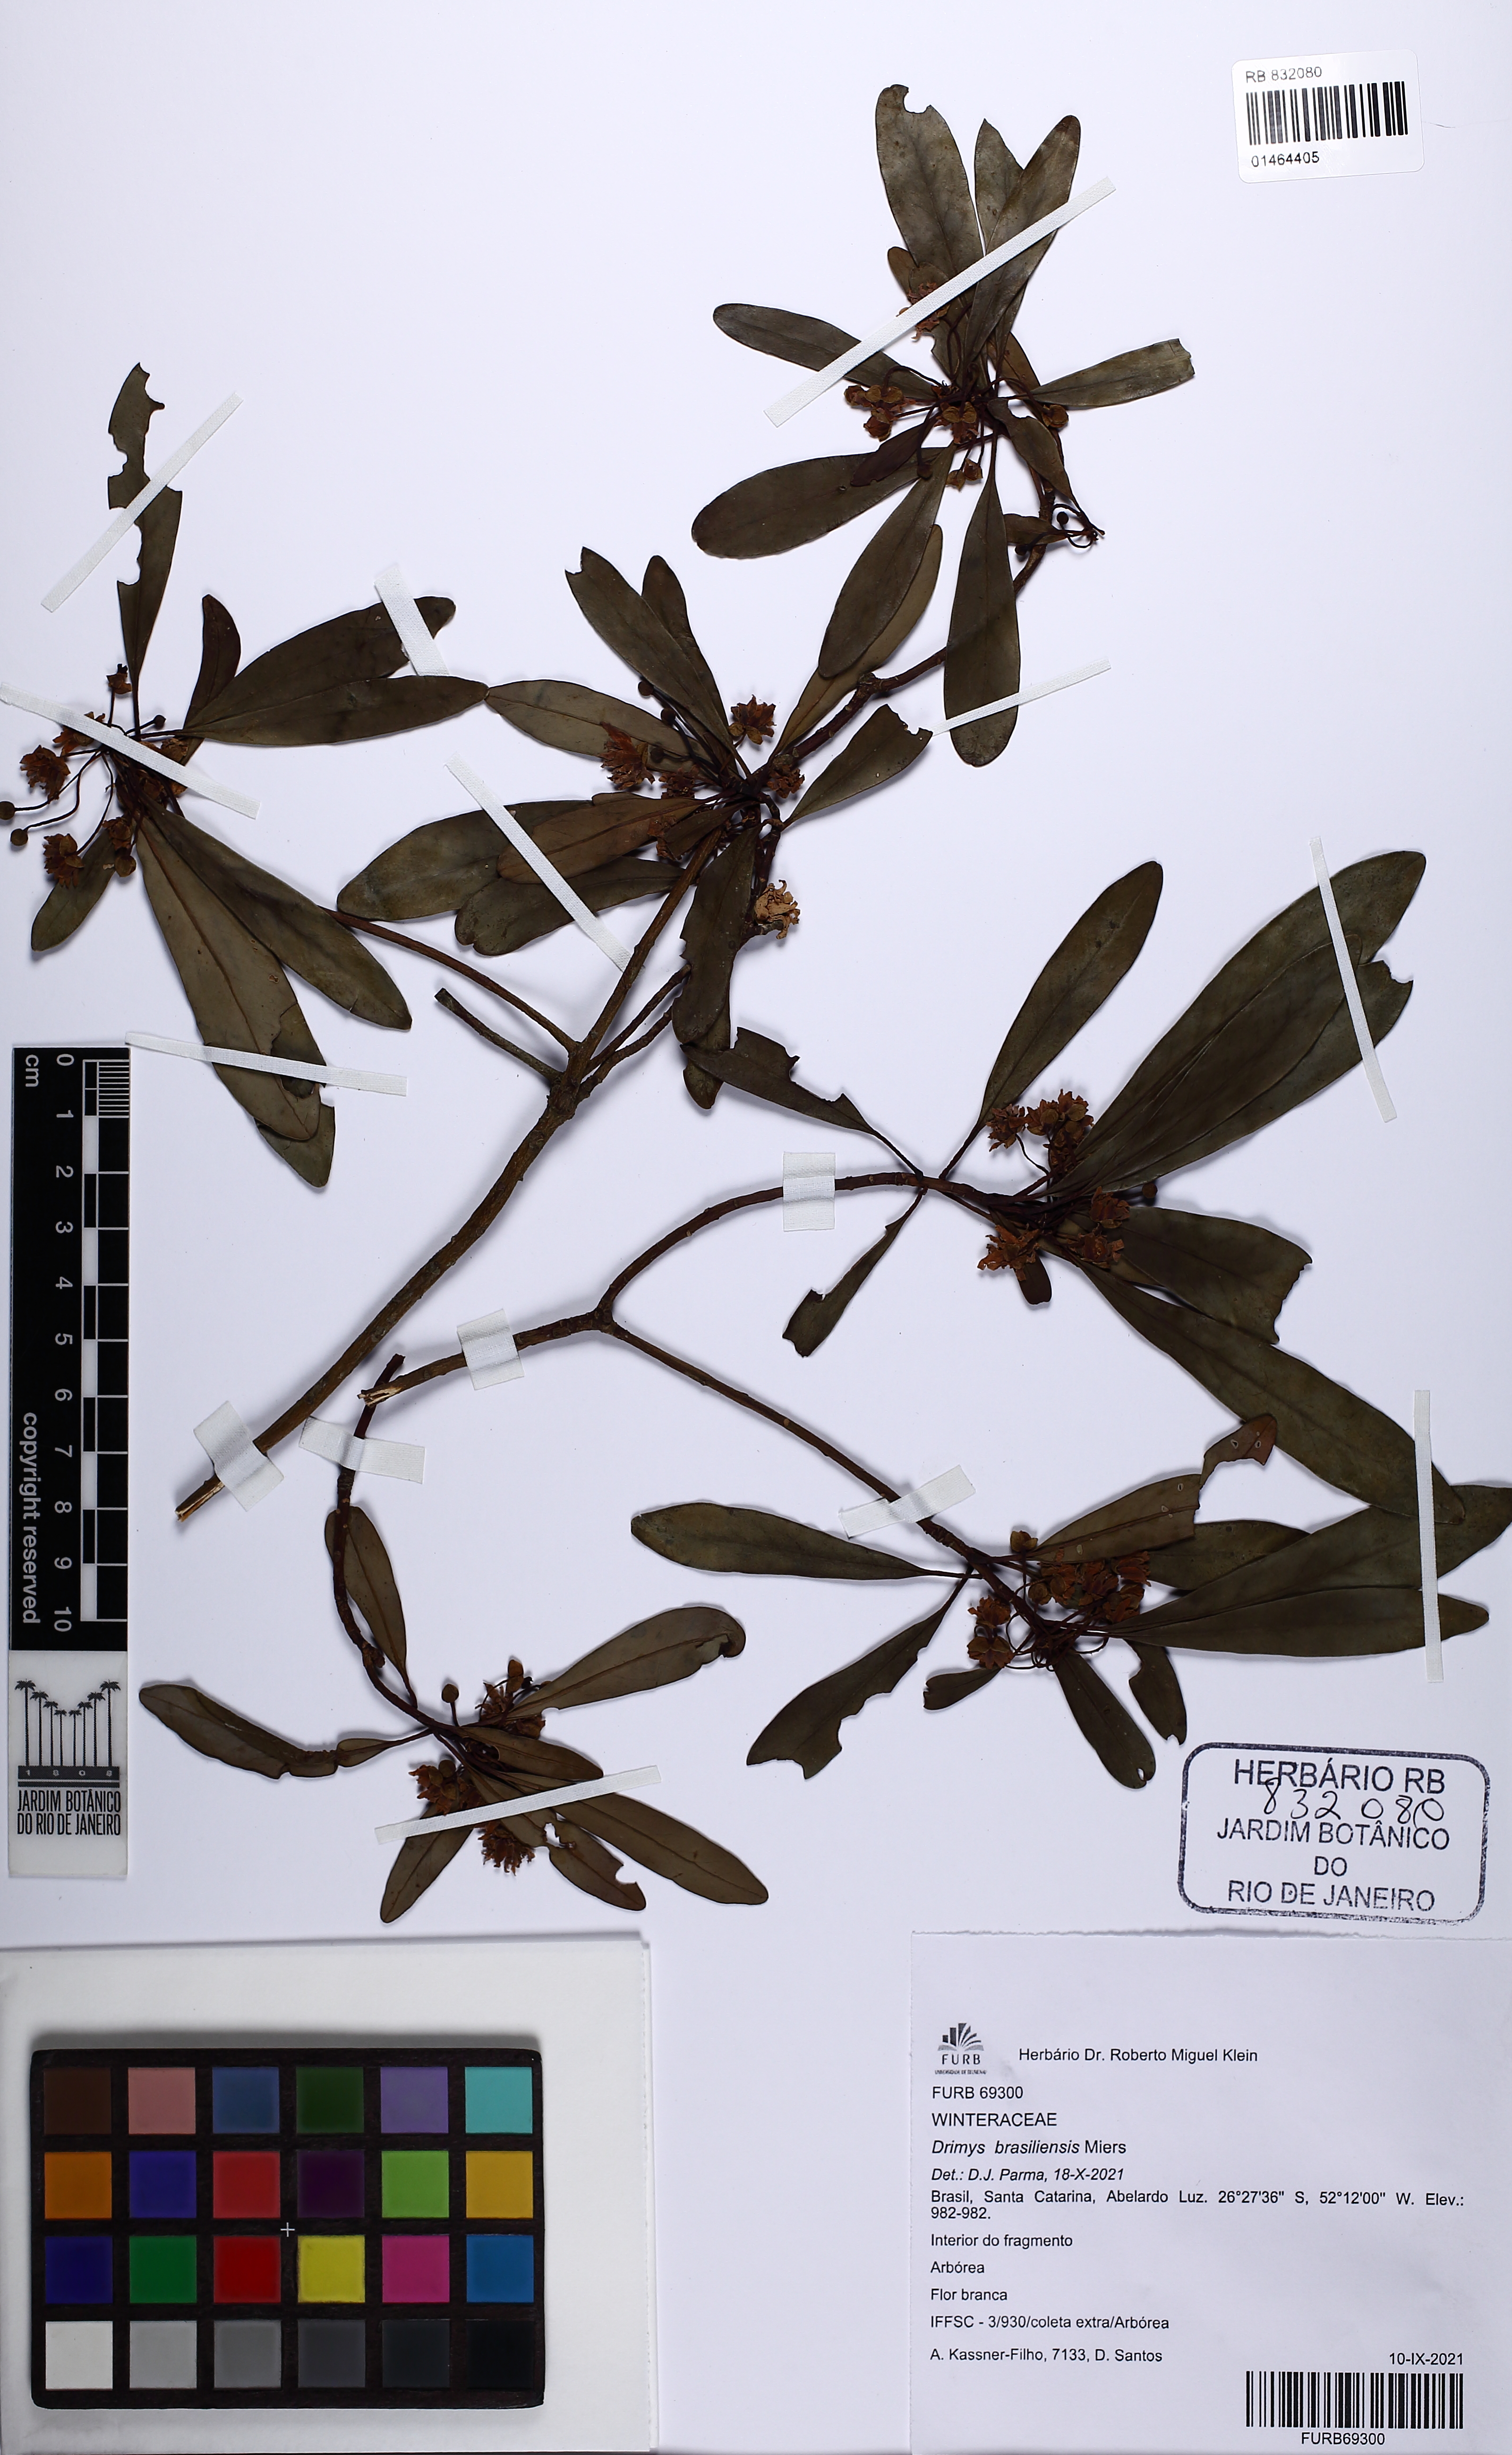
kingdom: Plantae
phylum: Tracheophyta
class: Magnoliopsida
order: Canellales
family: Winteraceae
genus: Drimys
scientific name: Drimys brasiliensis
